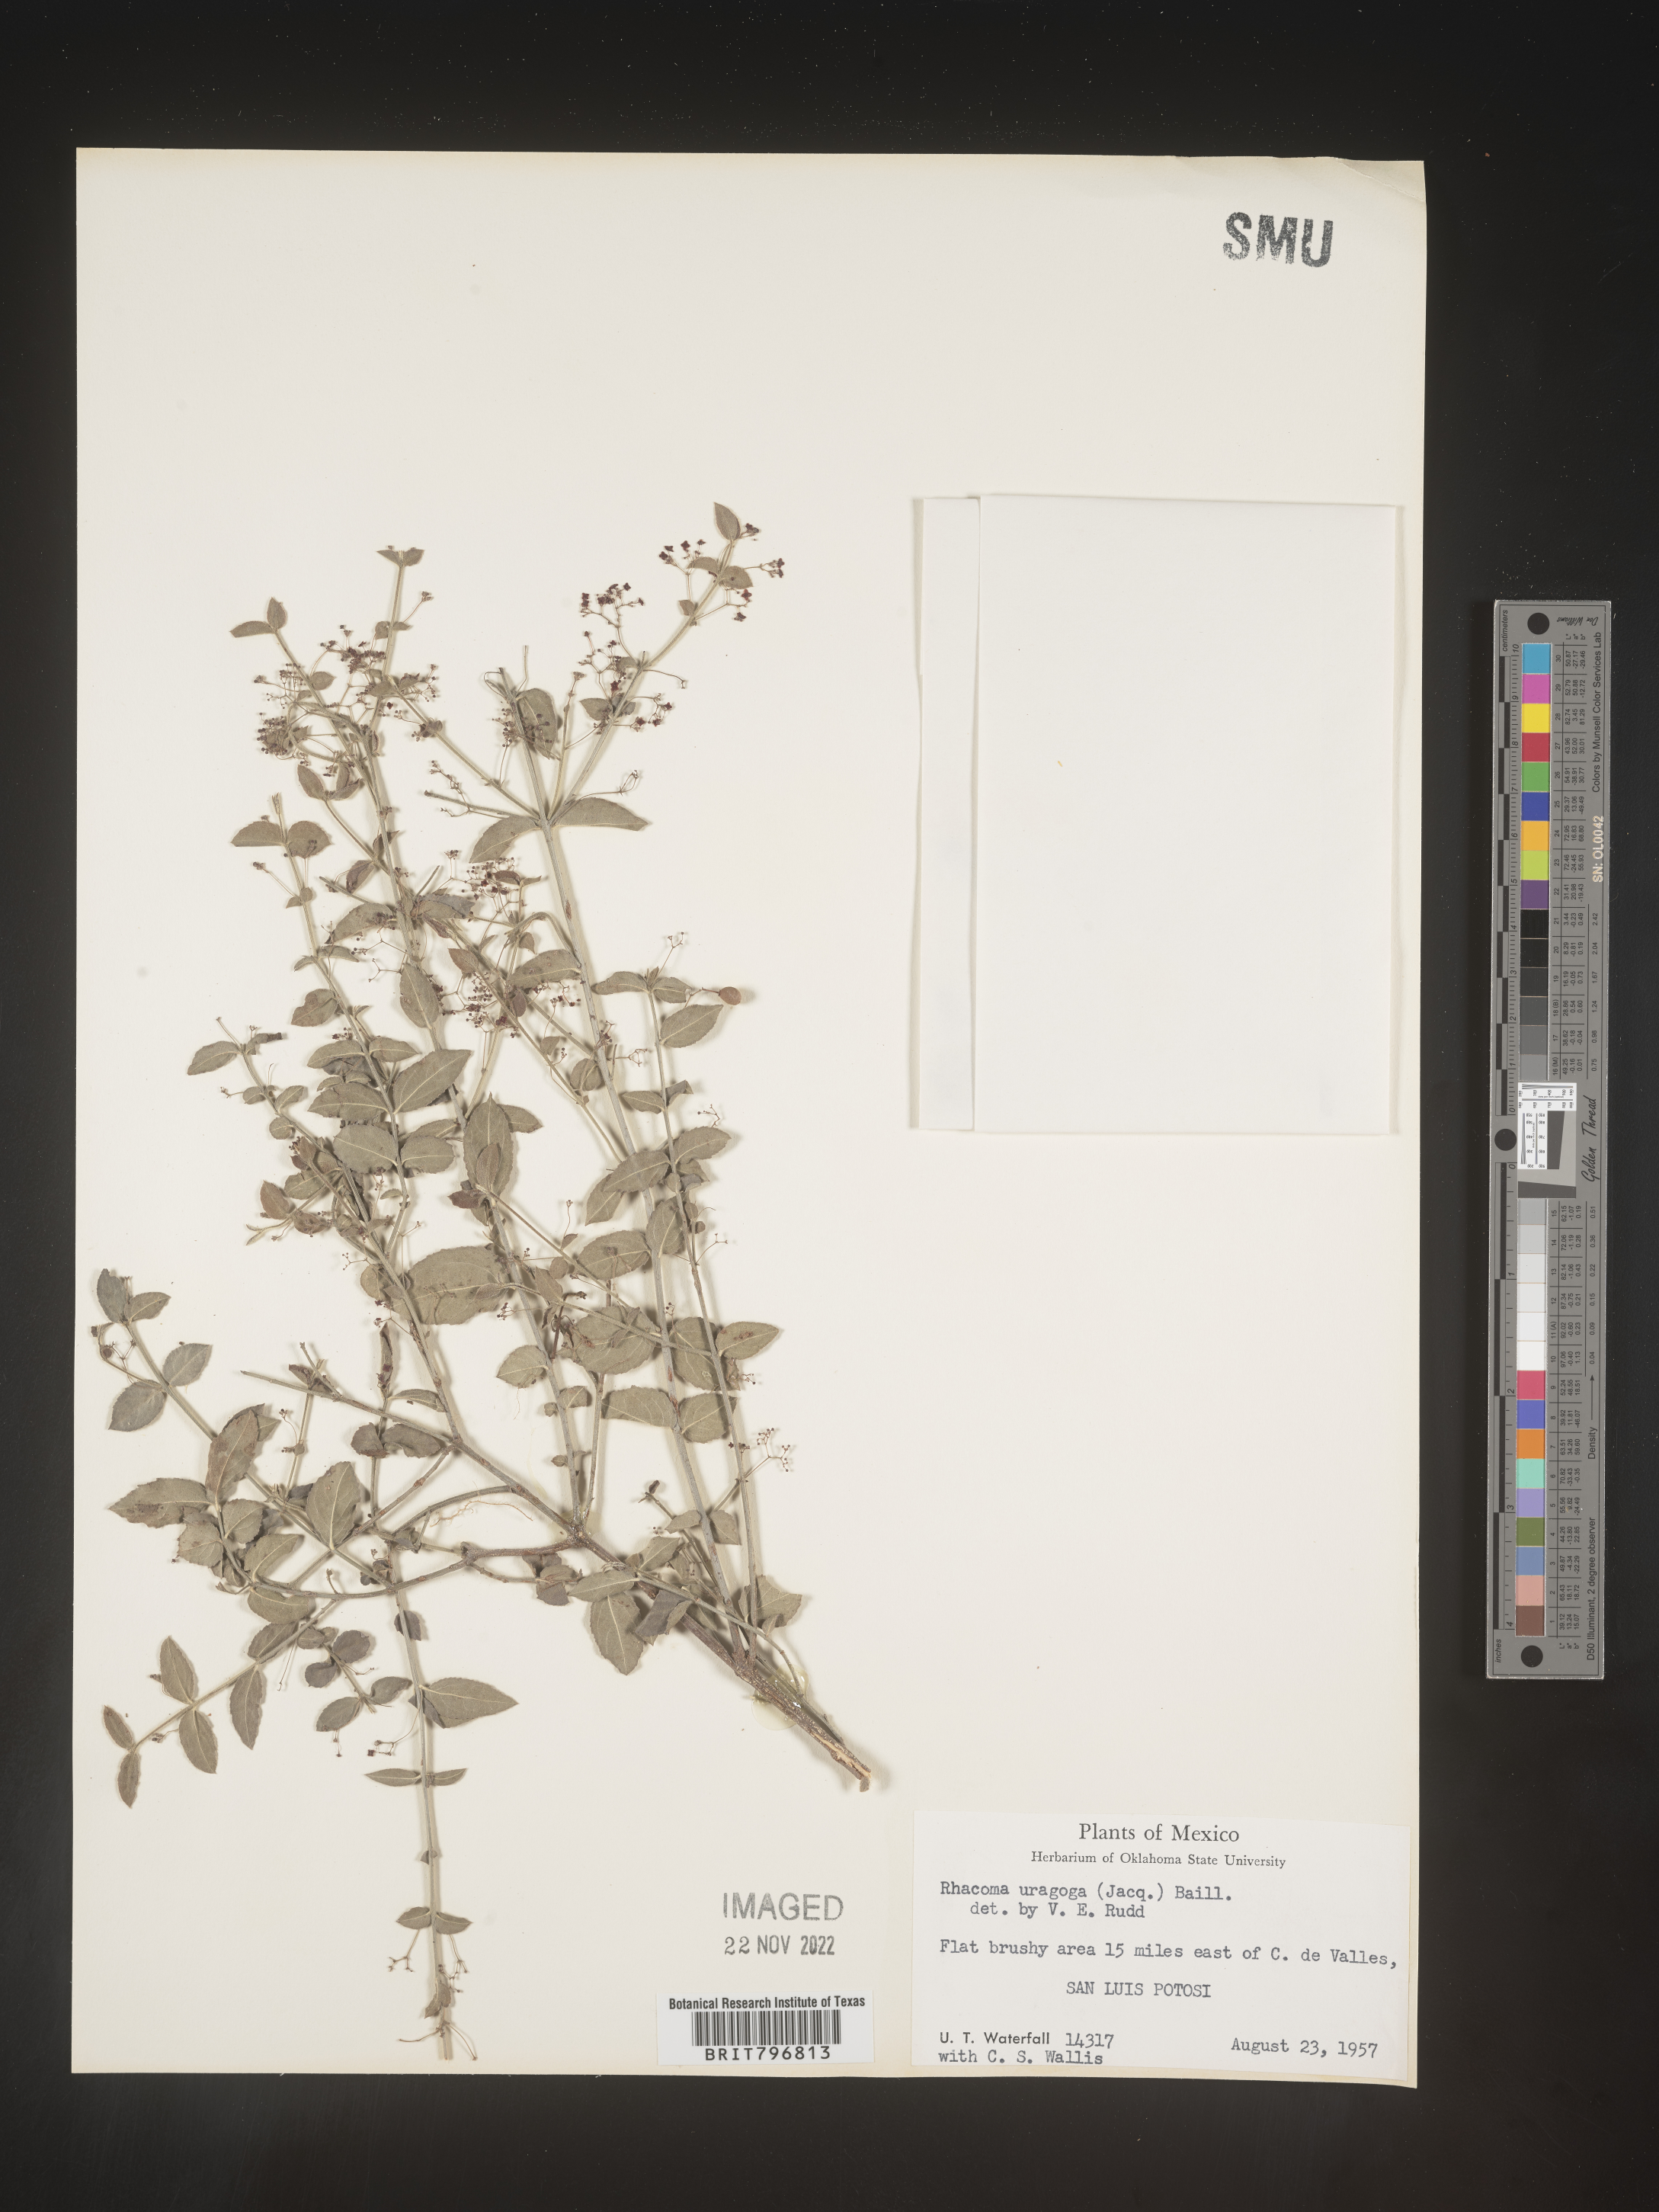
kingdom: Plantae
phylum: Tracheophyta
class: Magnoliopsida
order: Celastrales
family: Celastraceae
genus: Crossopetalum
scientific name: Crossopetalum
